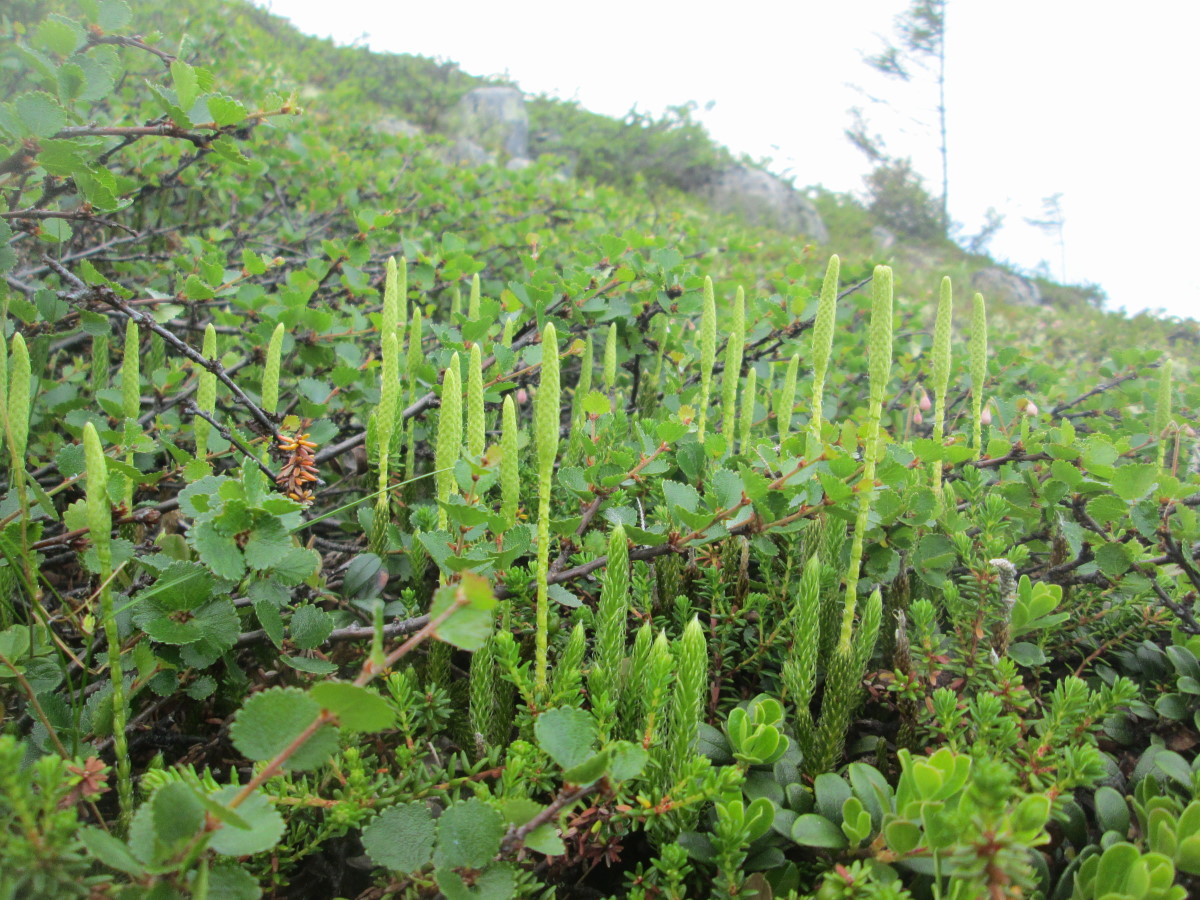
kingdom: Plantae
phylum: Tracheophyta
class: Lycopodiopsida
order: Lycopodiales
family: Lycopodiaceae
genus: Lycopodium
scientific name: Lycopodium lagopus
